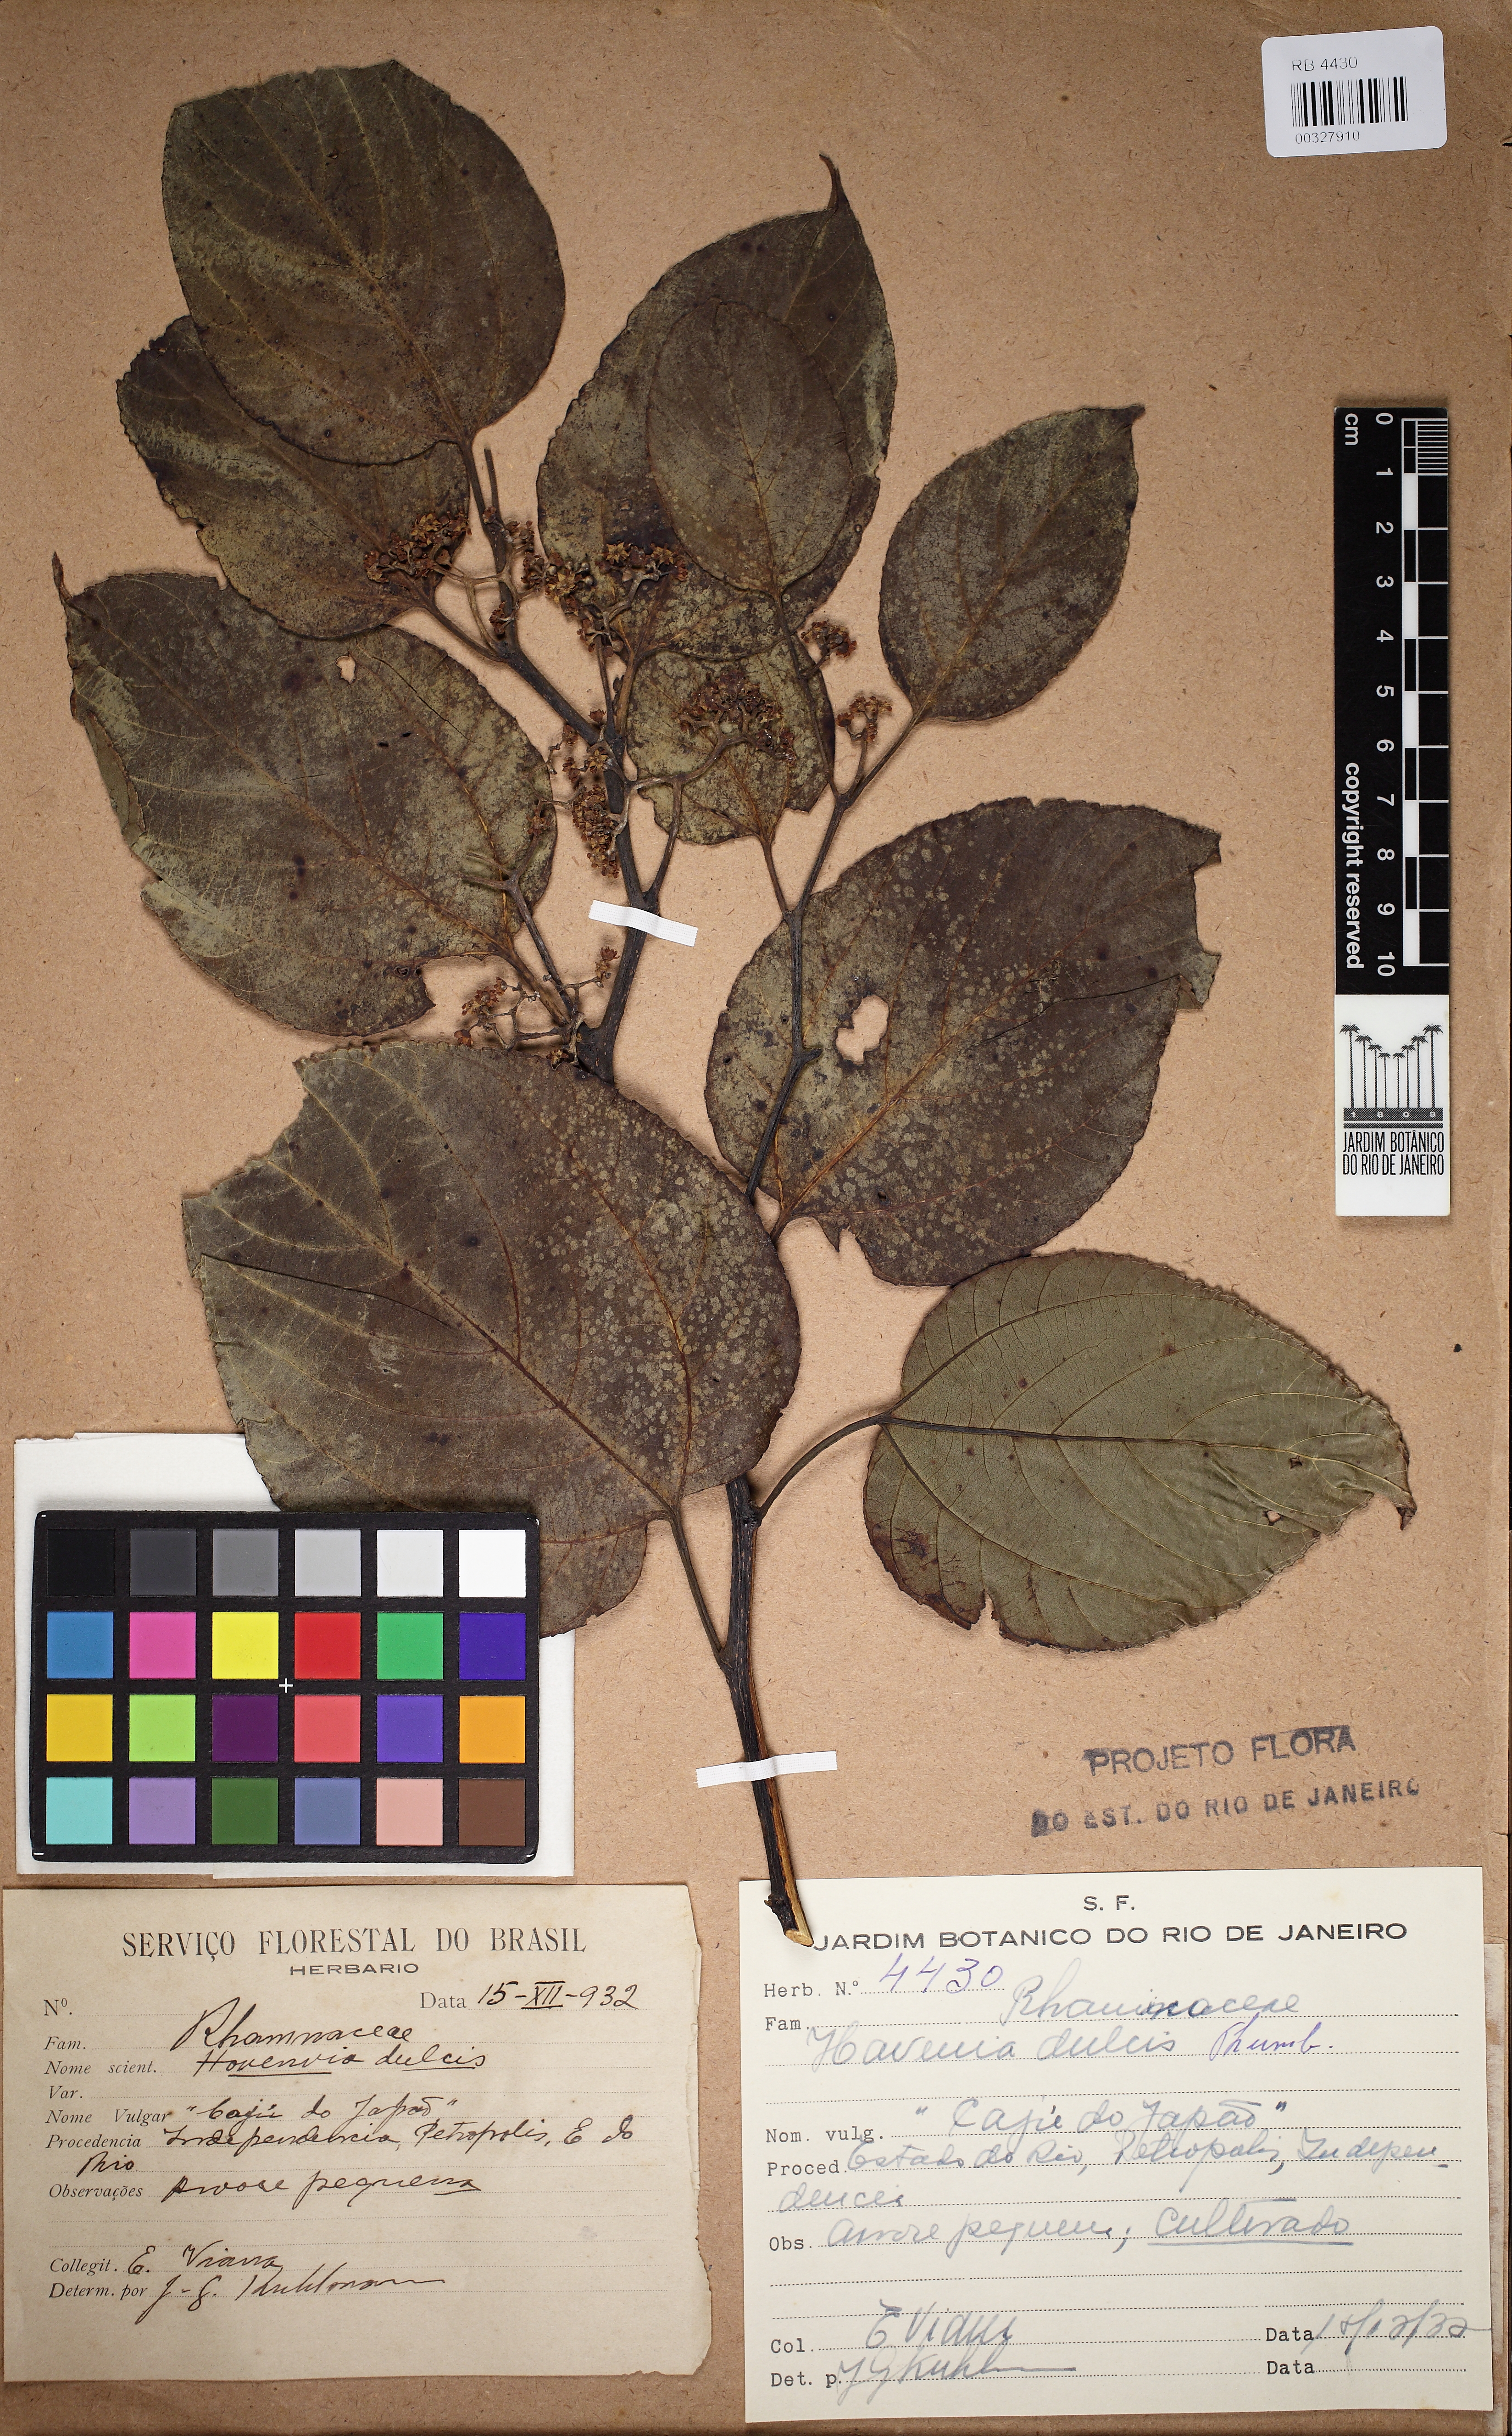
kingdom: Plantae
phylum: Tracheophyta
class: Magnoliopsida
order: Rosales
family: Rhamnaceae
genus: Hovenia
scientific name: Hovenia dulcis
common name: Japanese raisintree
